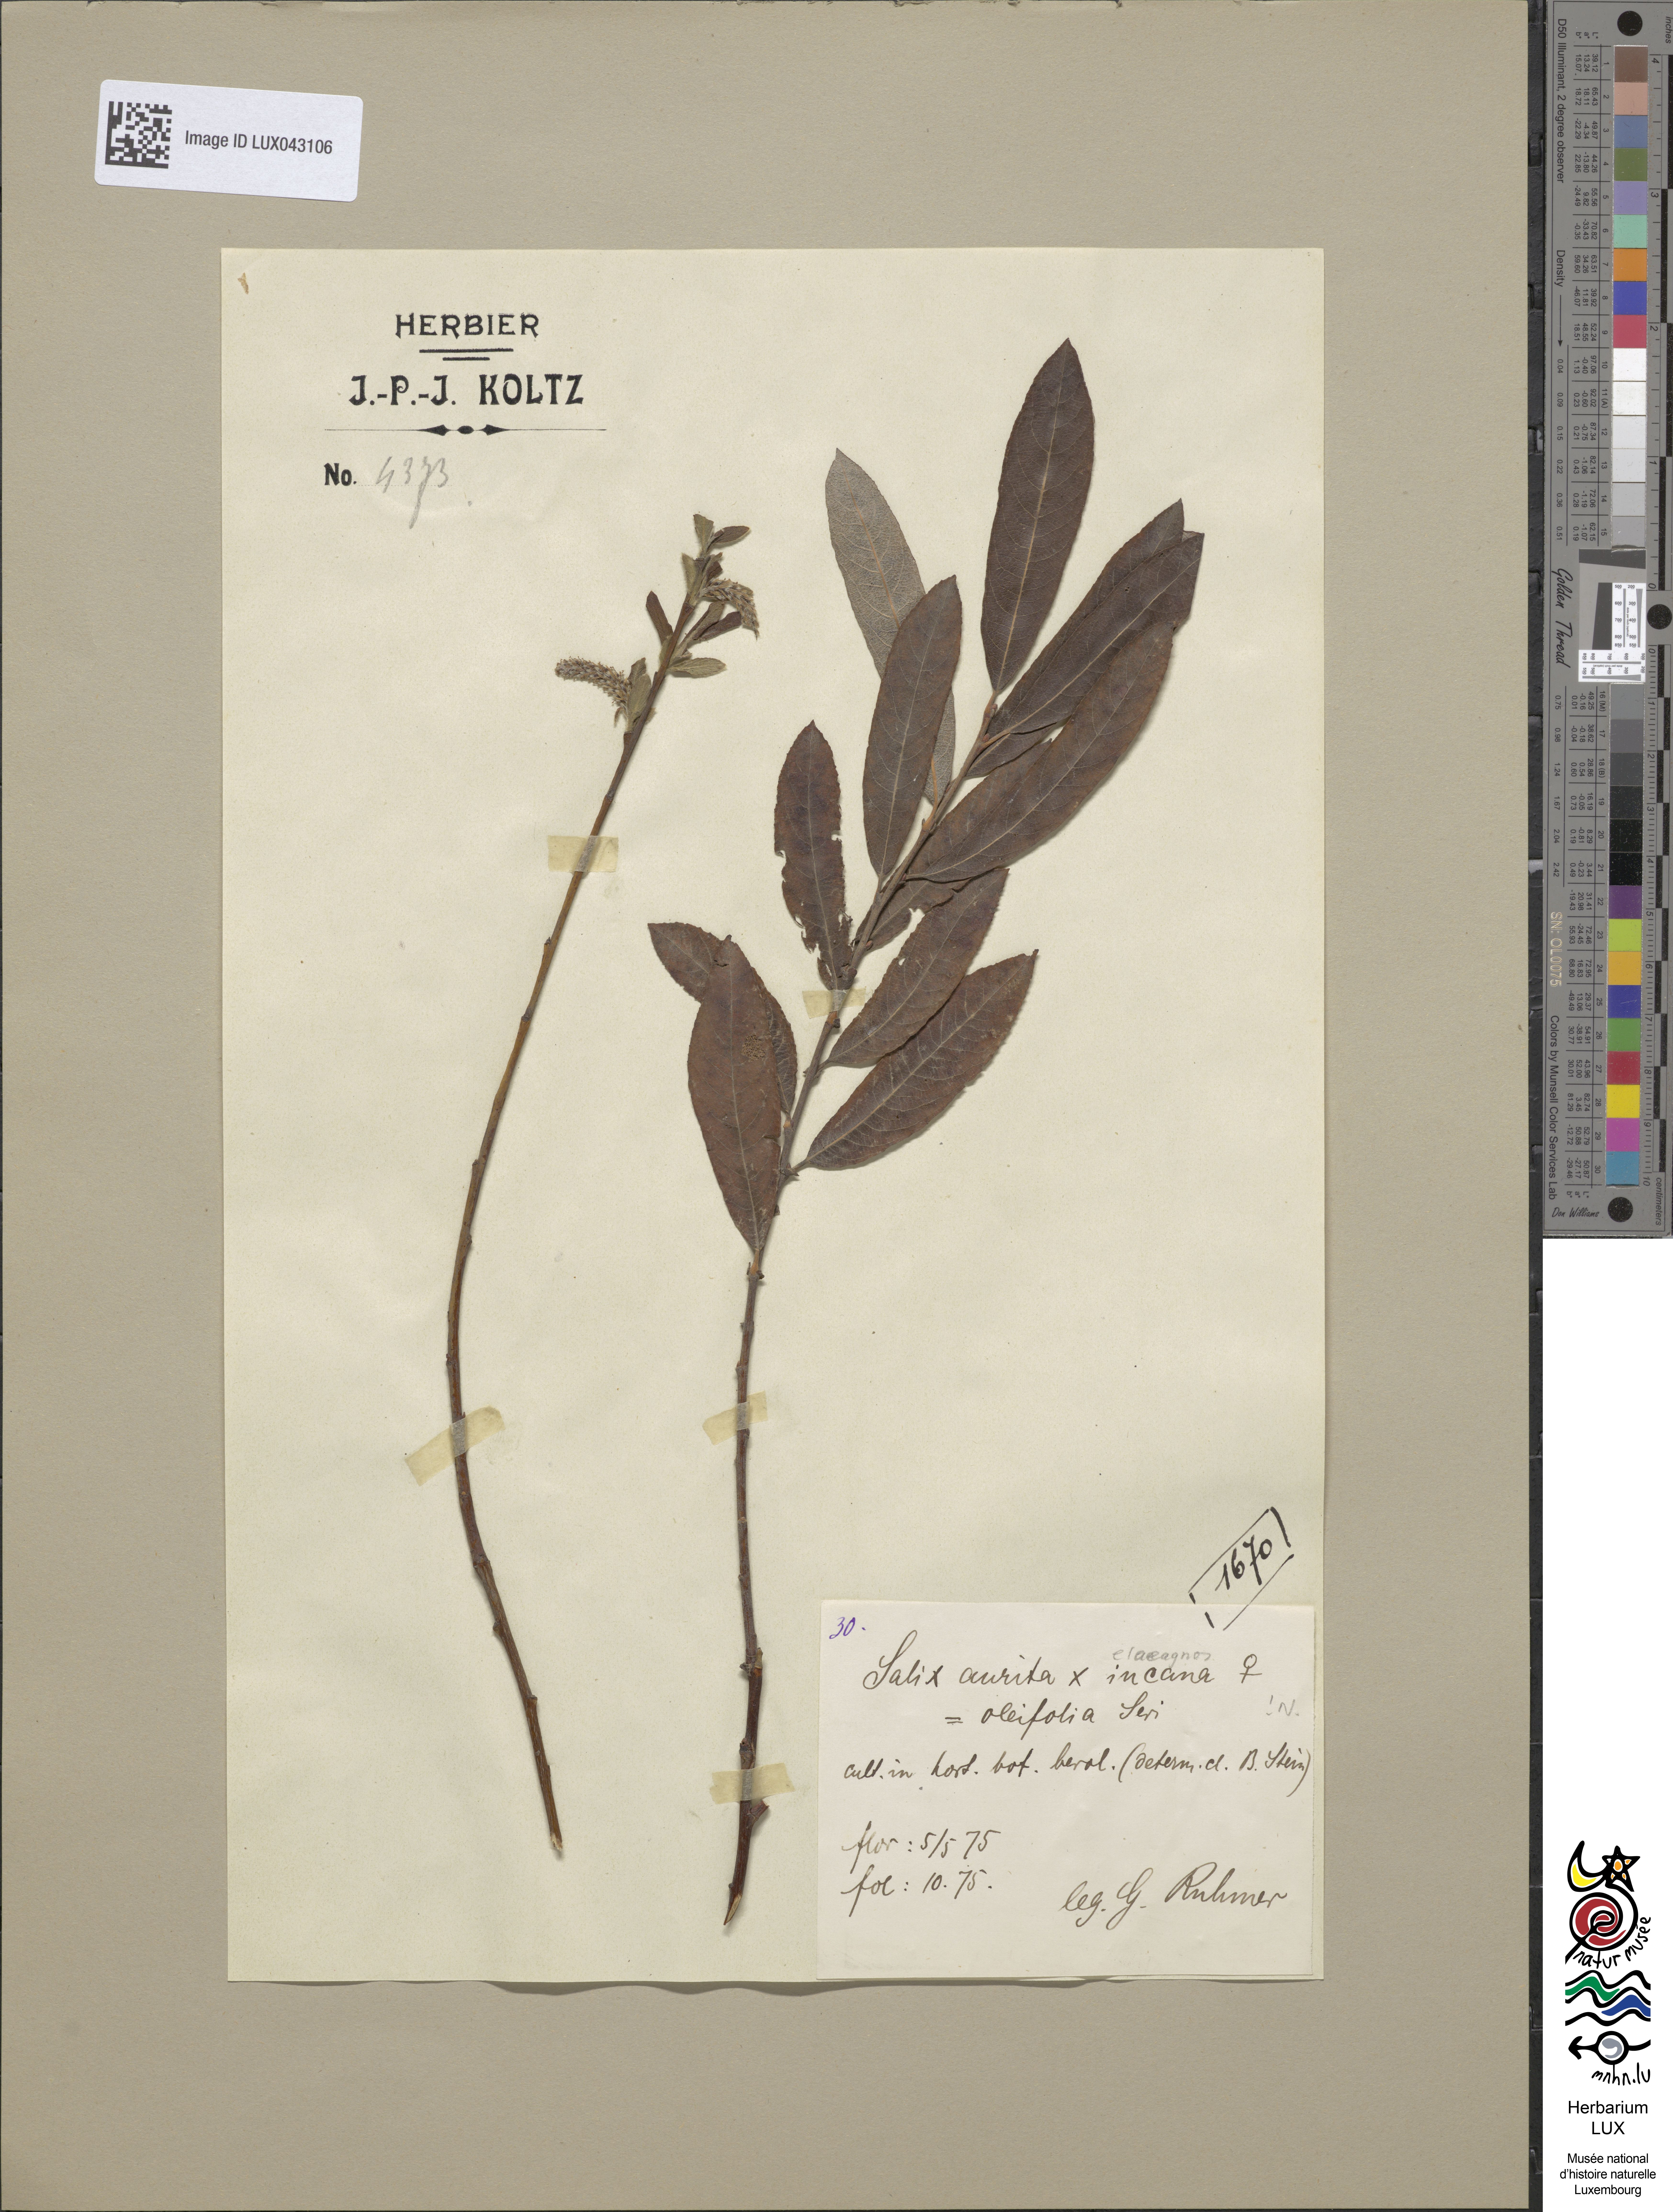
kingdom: Plantae
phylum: Tracheophyta
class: Magnoliopsida
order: Malpighiales
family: Salicaceae
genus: Salix
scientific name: Salix aurita
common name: Eared willow
